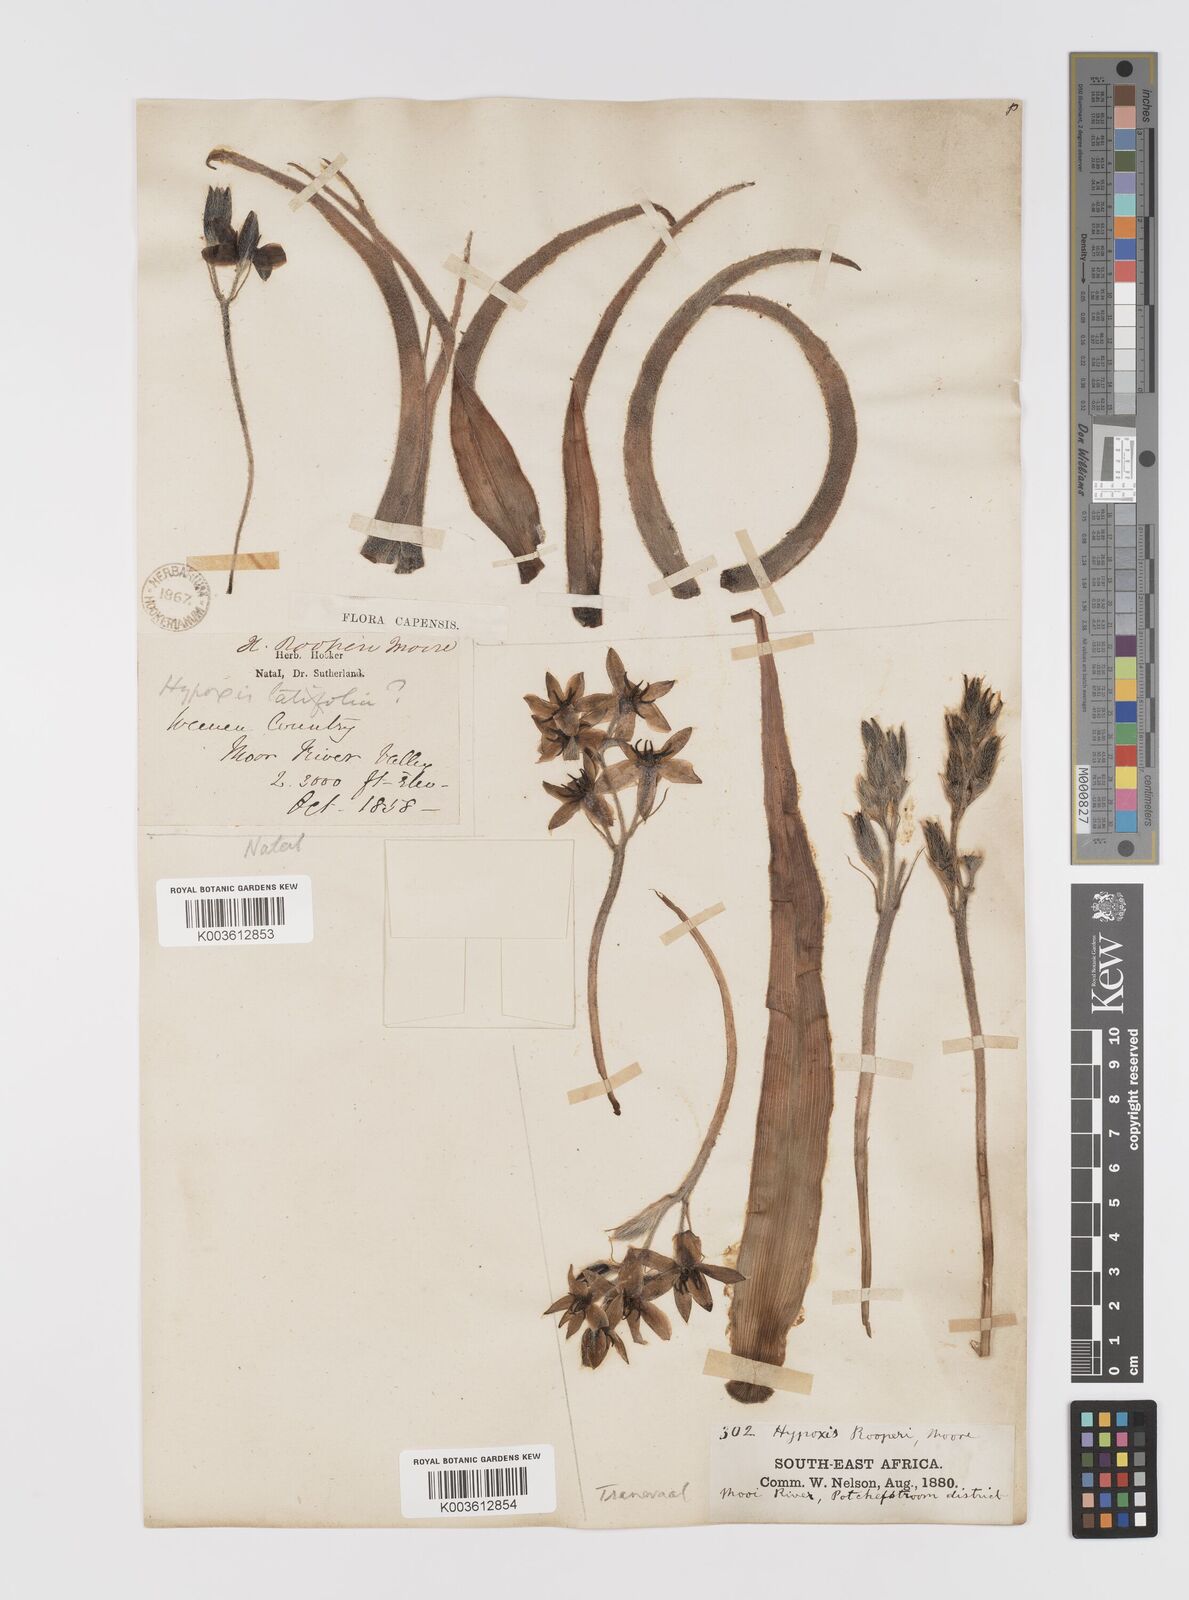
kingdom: Plantae
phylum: Tracheophyta
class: Liliopsida
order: Asparagales
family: Hypoxidaceae
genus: Hypoxis
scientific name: Hypoxis hemerocallidea
